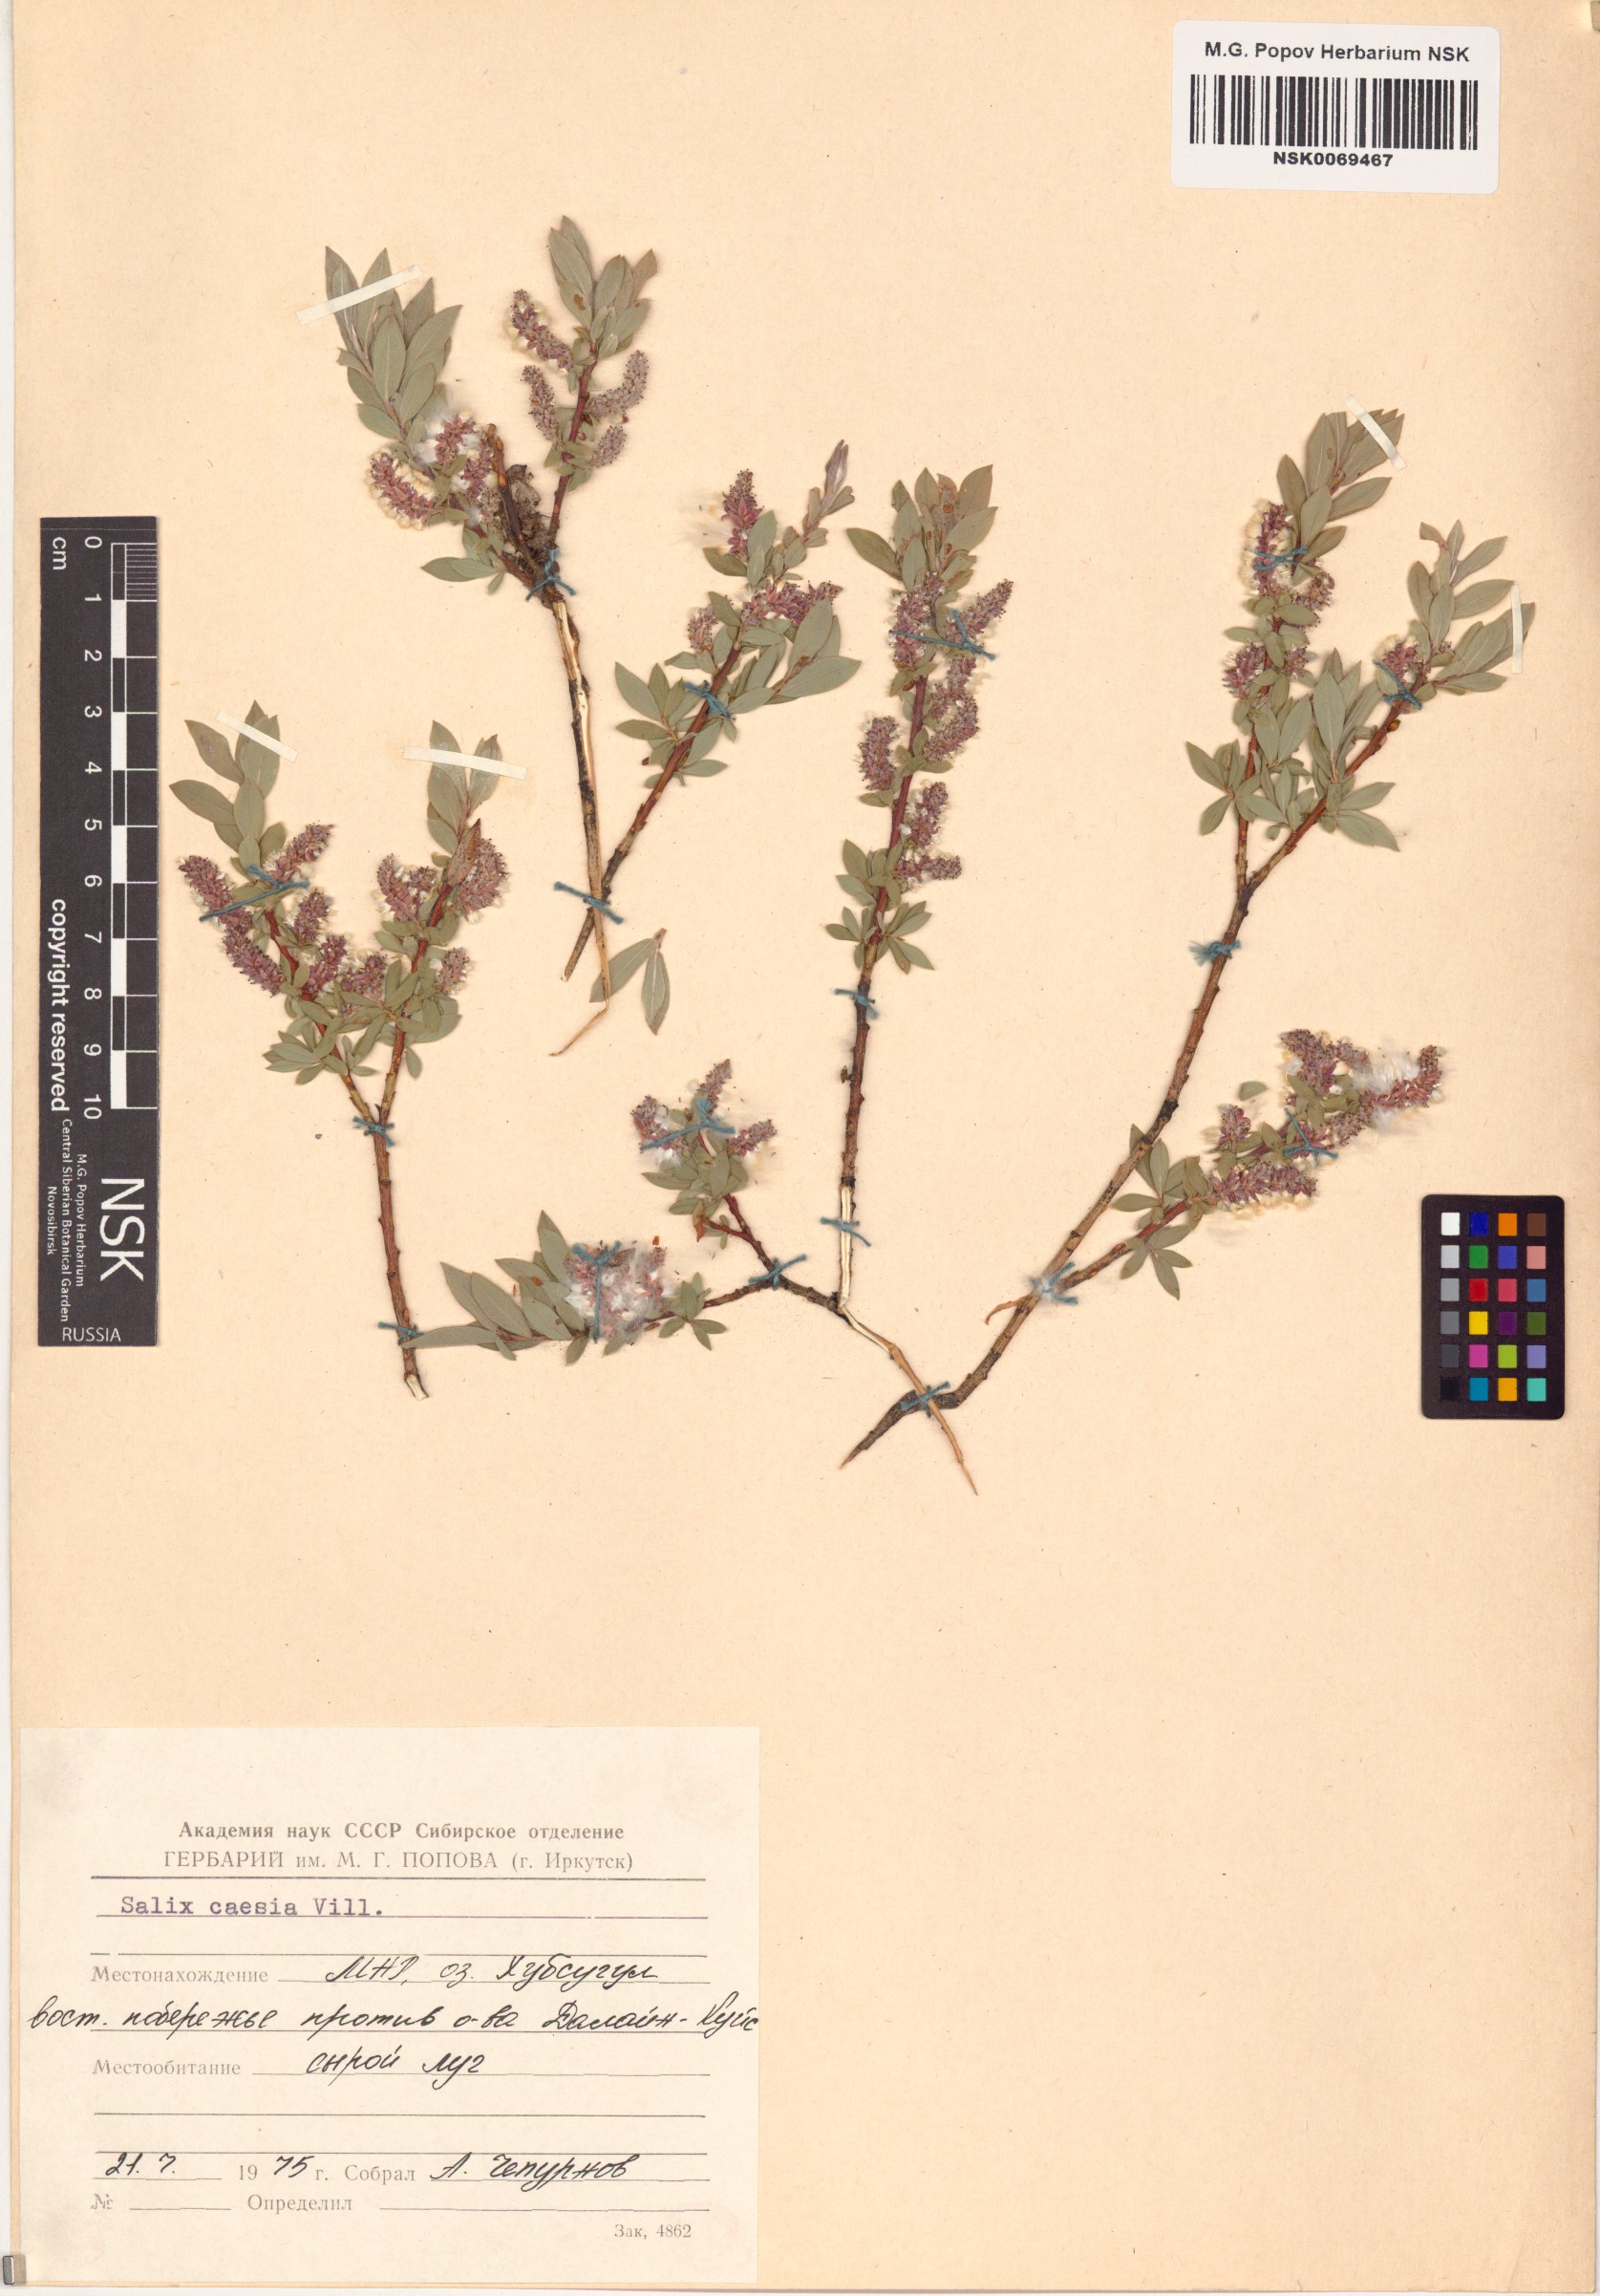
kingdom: Plantae
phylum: Tracheophyta
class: Magnoliopsida
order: Malpighiales
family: Salicaceae
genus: Salix
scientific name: Salix caesia
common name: Blue willow
